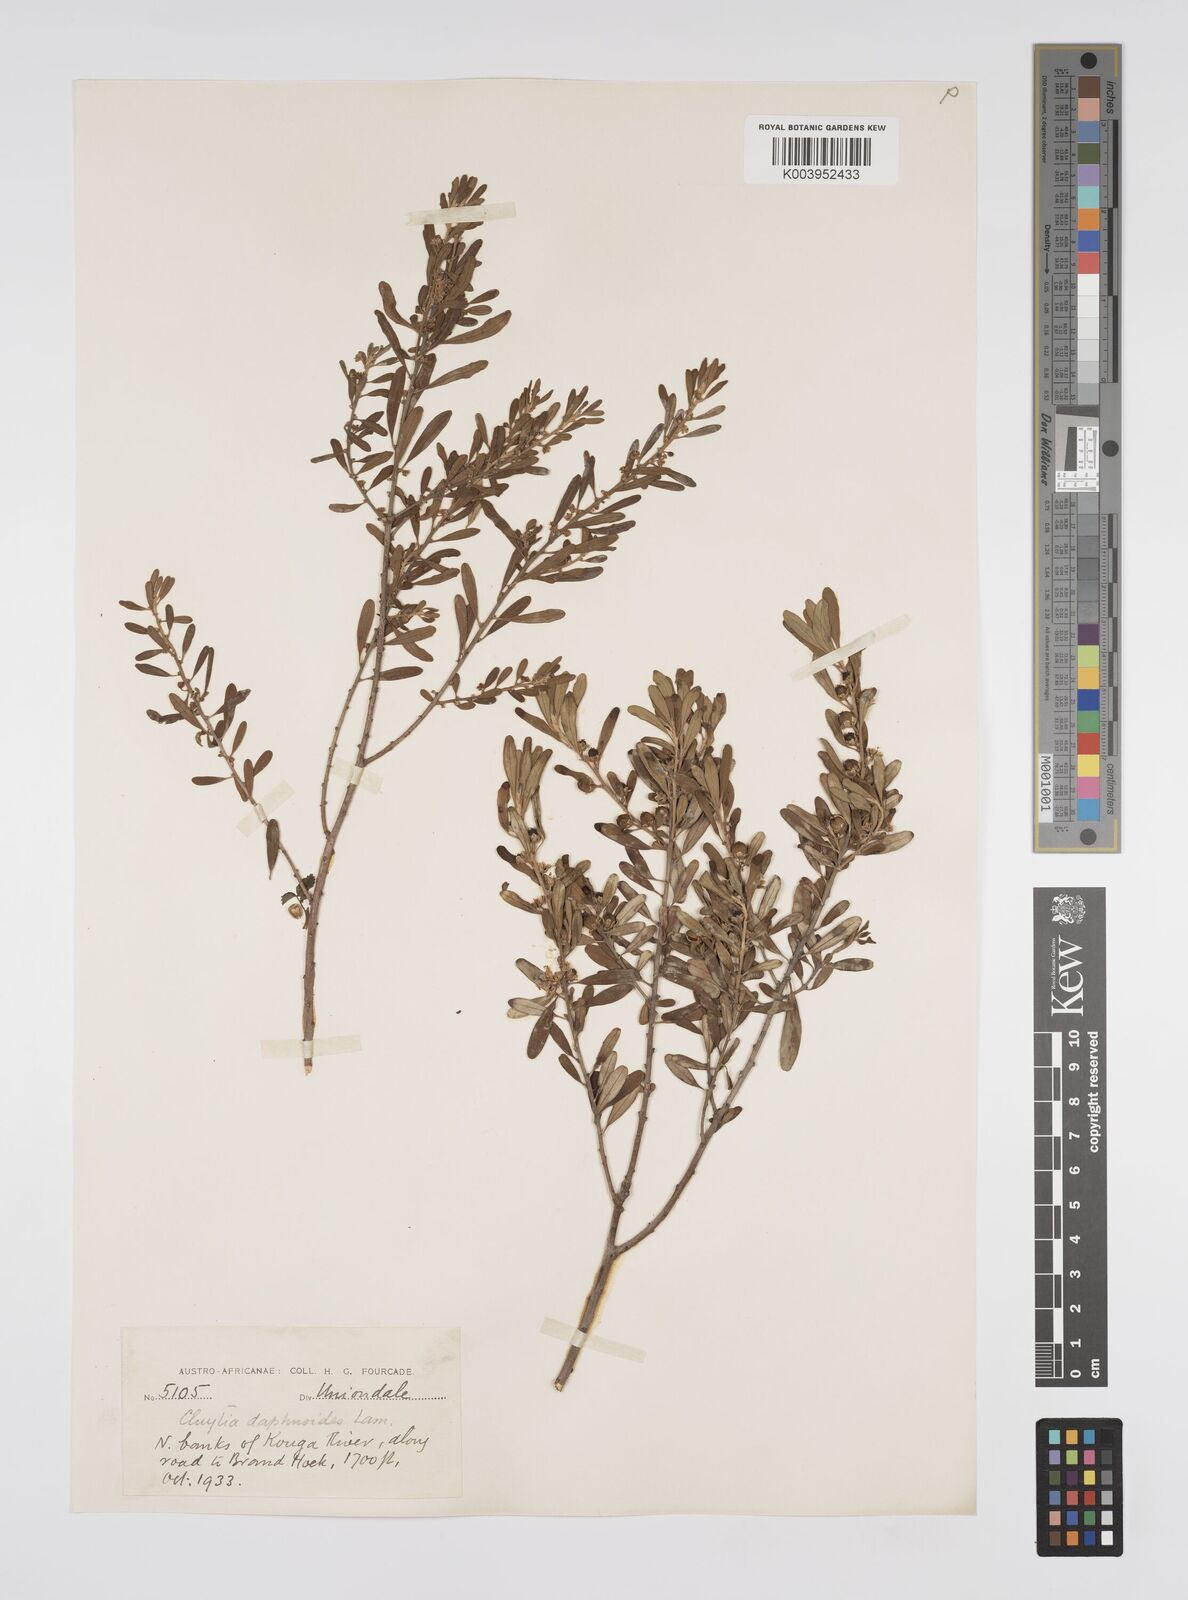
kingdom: Plantae
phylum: Tracheophyta
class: Magnoliopsida
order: Malpighiales
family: Peraceae
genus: Clutia
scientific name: Clutia daphnoides
